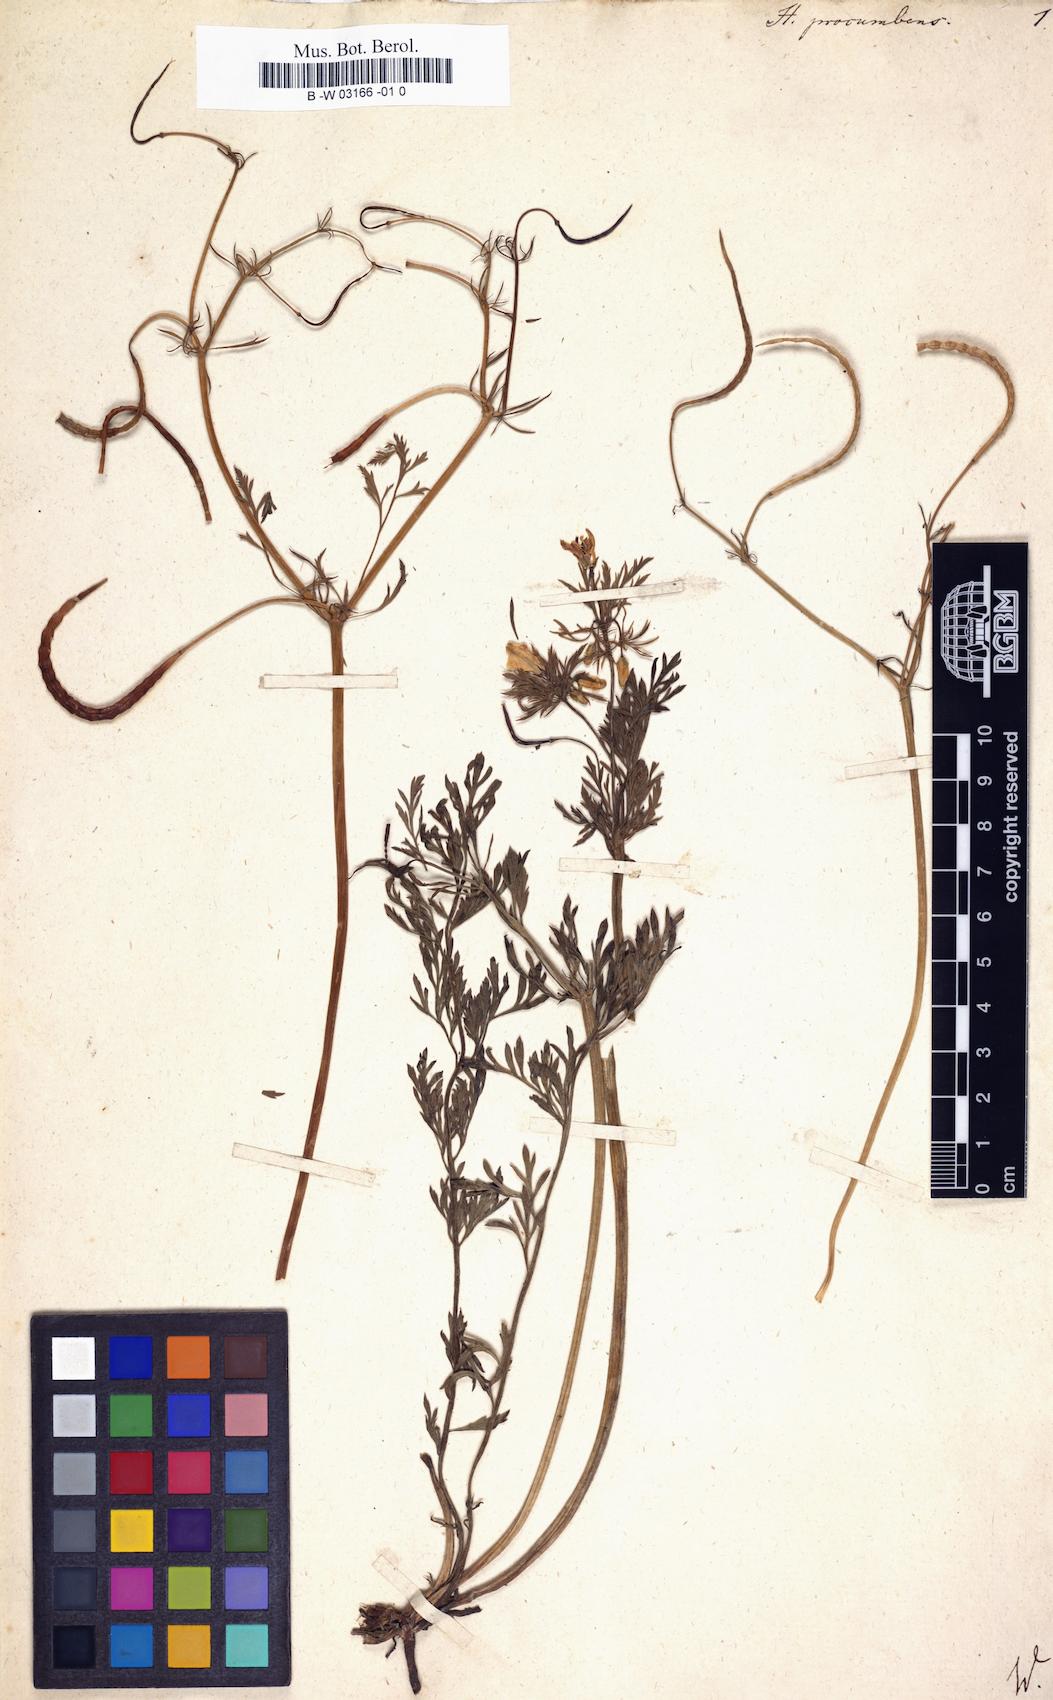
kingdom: Plantae
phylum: Tracheophyta
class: Magnoliopsida
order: Ranunculales
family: Papaveraceae
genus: Hypecoum
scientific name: Hypecoum procumbens
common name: Procumbent hypecoum
